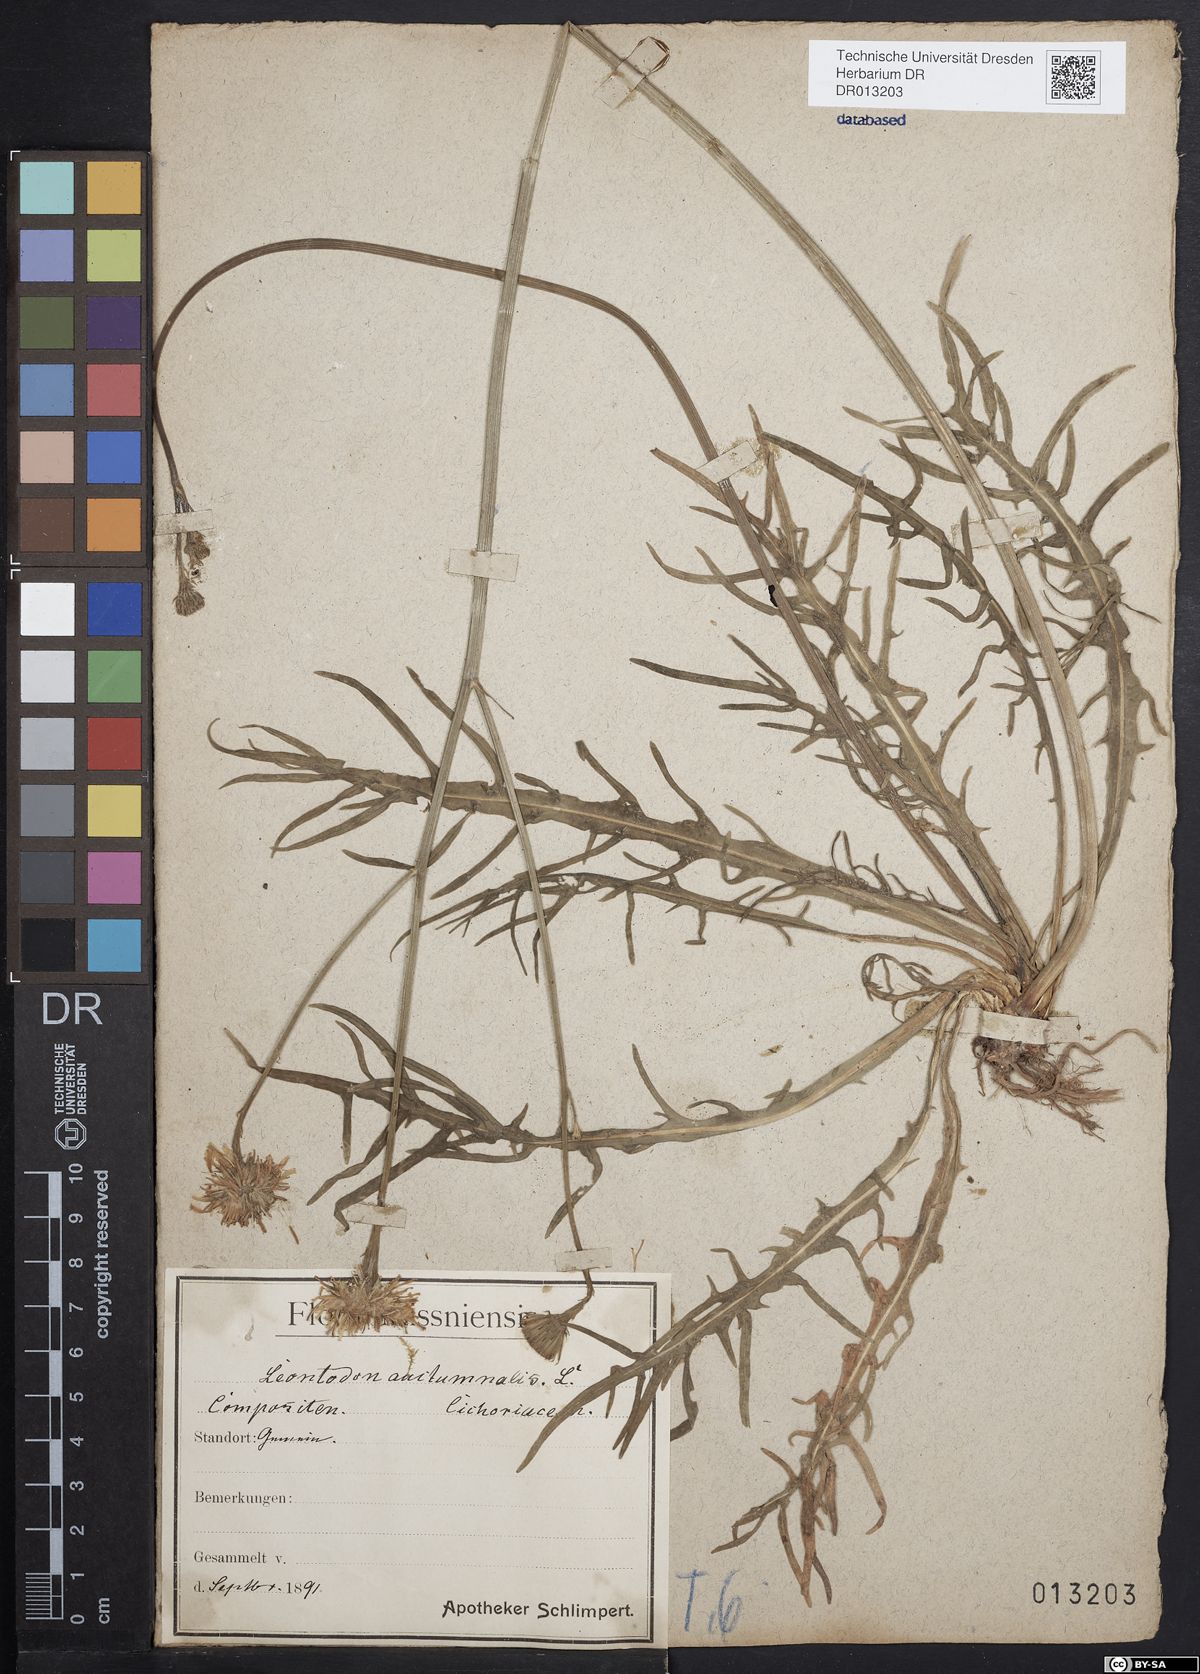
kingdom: Plantae
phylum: Tracheophyta
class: Magnoliopsida
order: Asterales
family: Asteraceae
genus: Scorzoneroides
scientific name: Scorzoneroides autumnalis
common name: Autumn hawkbit
